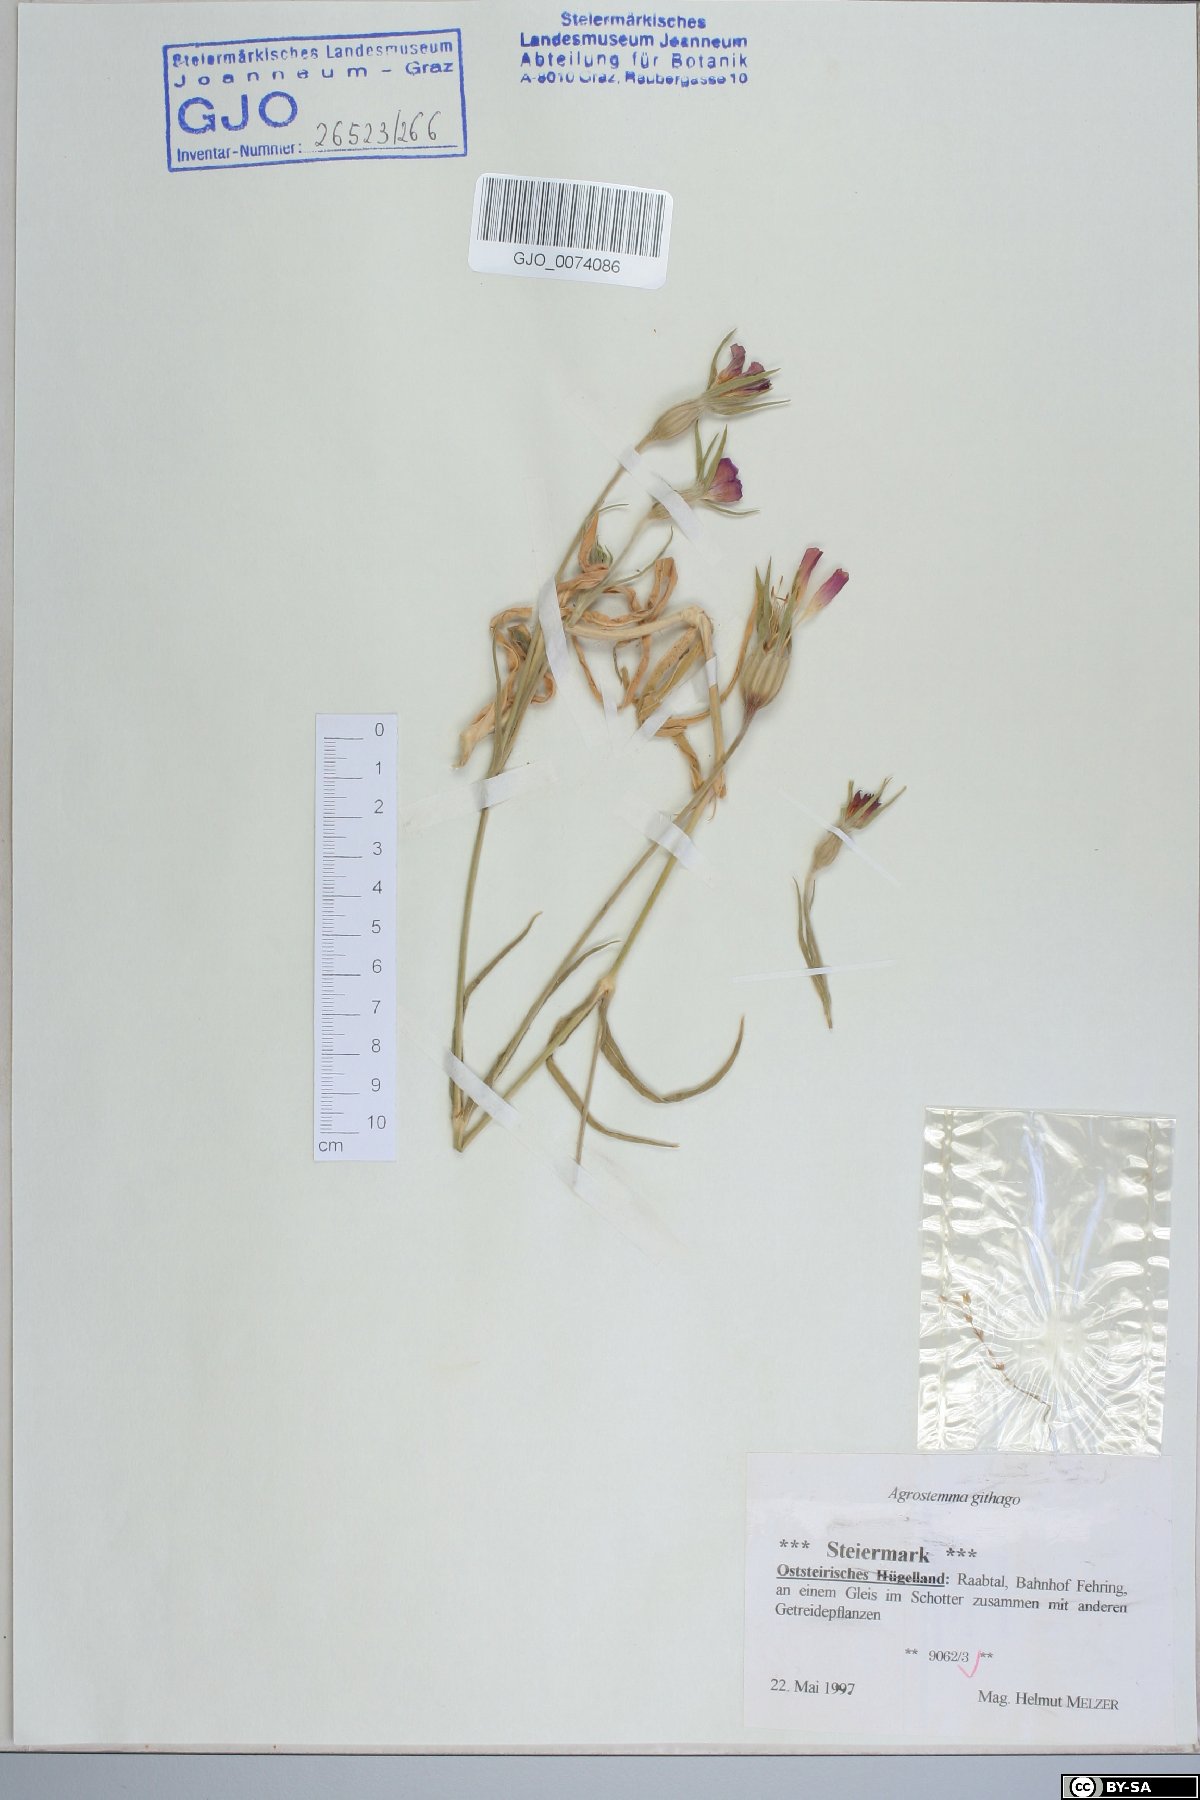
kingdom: Plantae
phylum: Tracheophyta
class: Magnoliopsida
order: Caryophyllales
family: Caryophyllaceae
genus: Agrostemma
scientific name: Agrostemma githago
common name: Common corncockle
